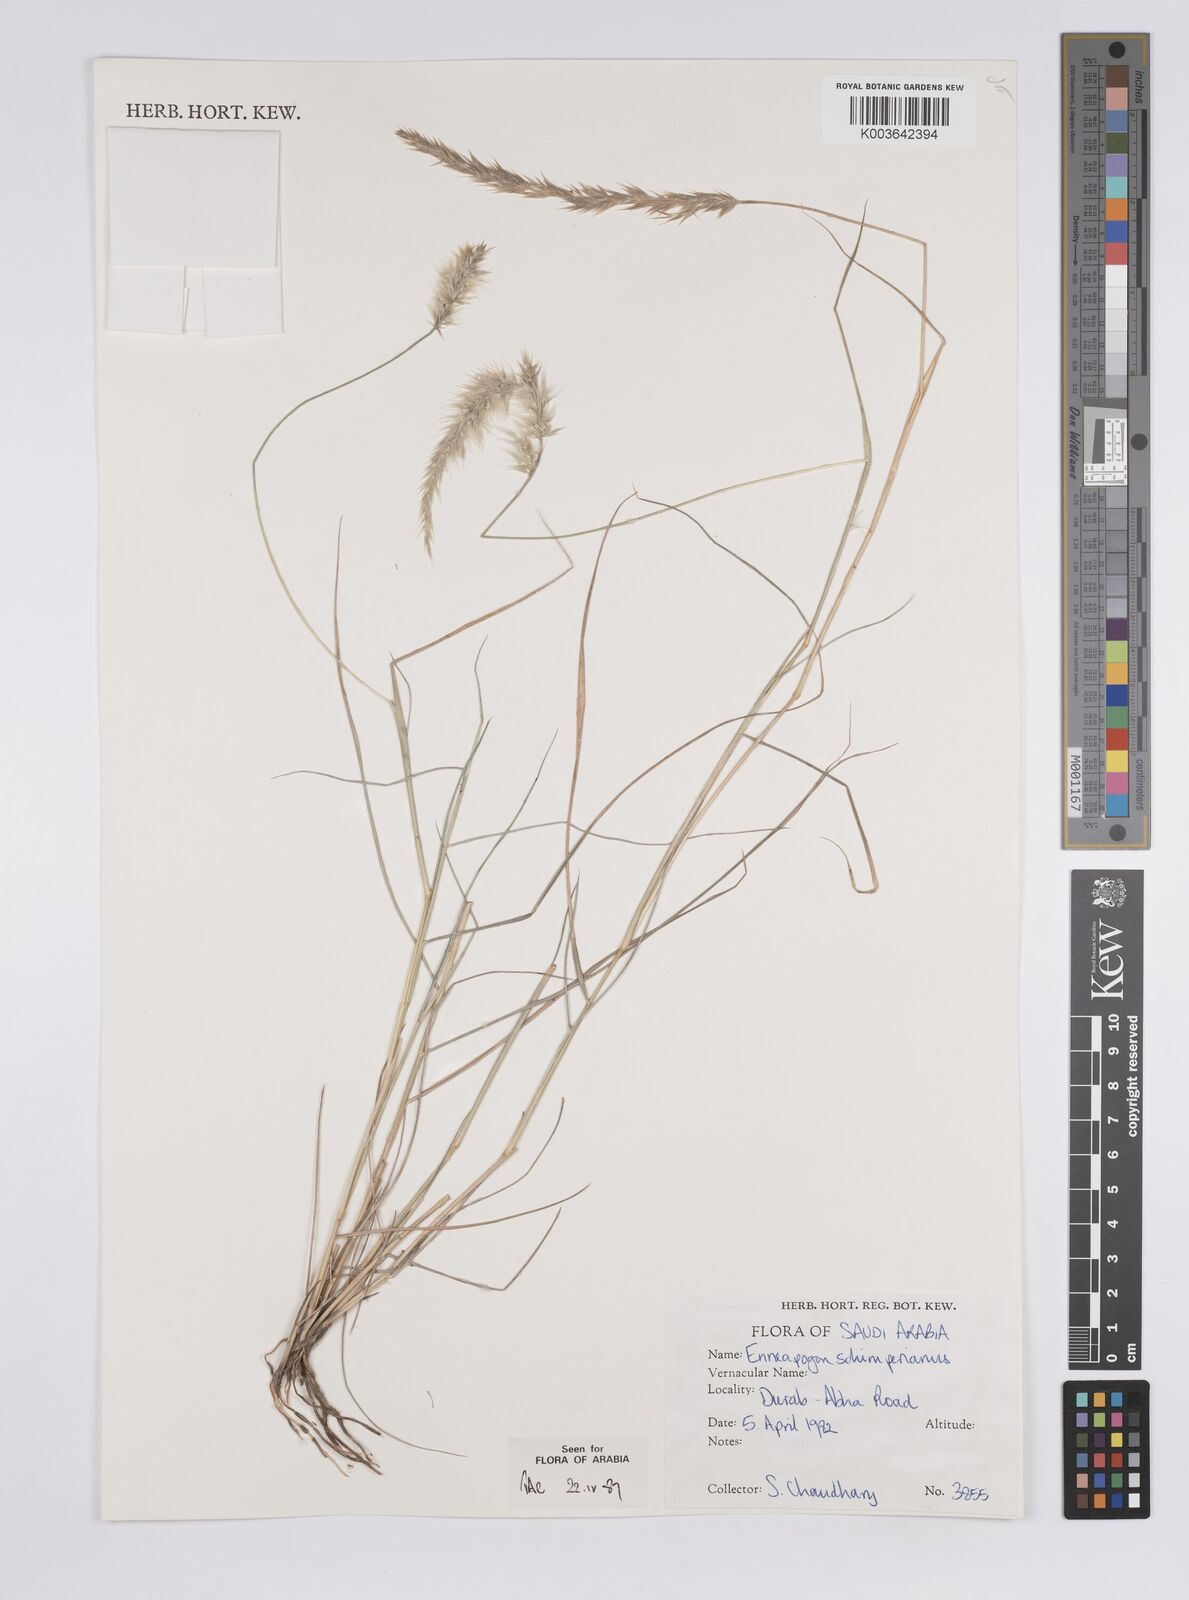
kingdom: Plantae
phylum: Tracheophyta
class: Liliopsida
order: Poales
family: Poaceae
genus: Enneapogon
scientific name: Enneapogon persicus
